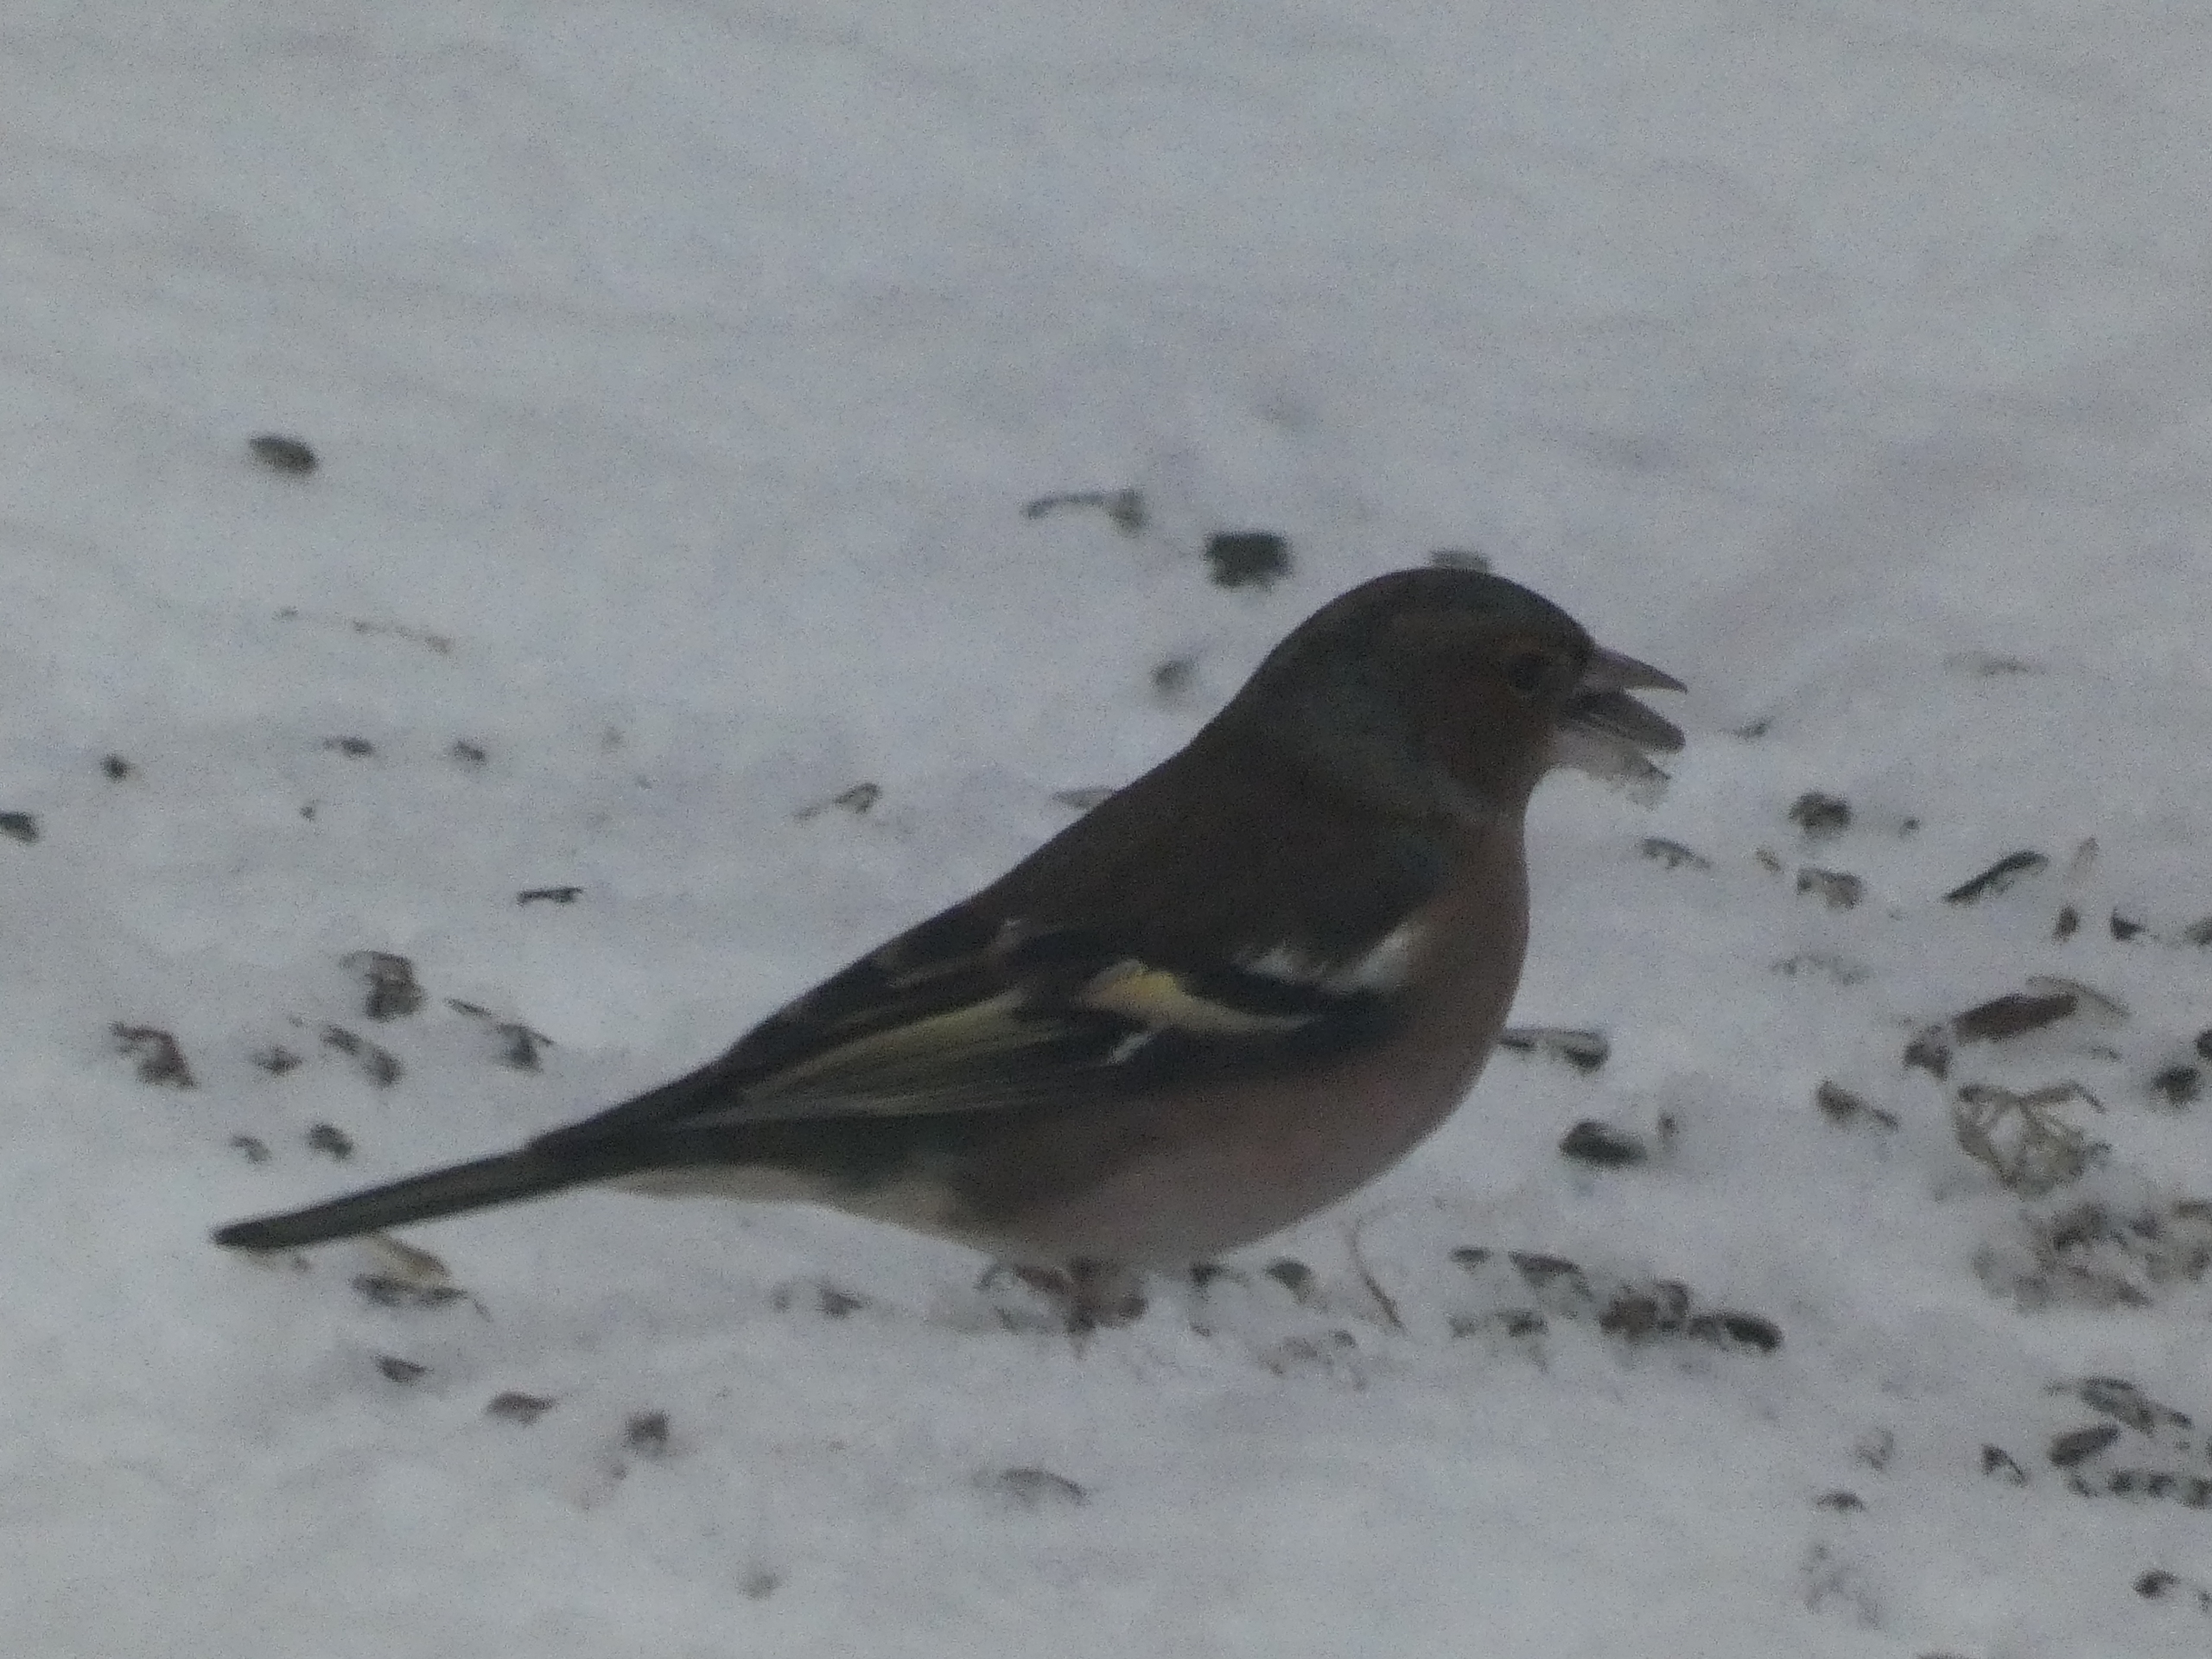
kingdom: Animalia
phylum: Chordata
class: Aves
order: Passeriformes
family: Fringillidae
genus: Fringilla
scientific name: Fringilla coelebs
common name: Bogfinke
